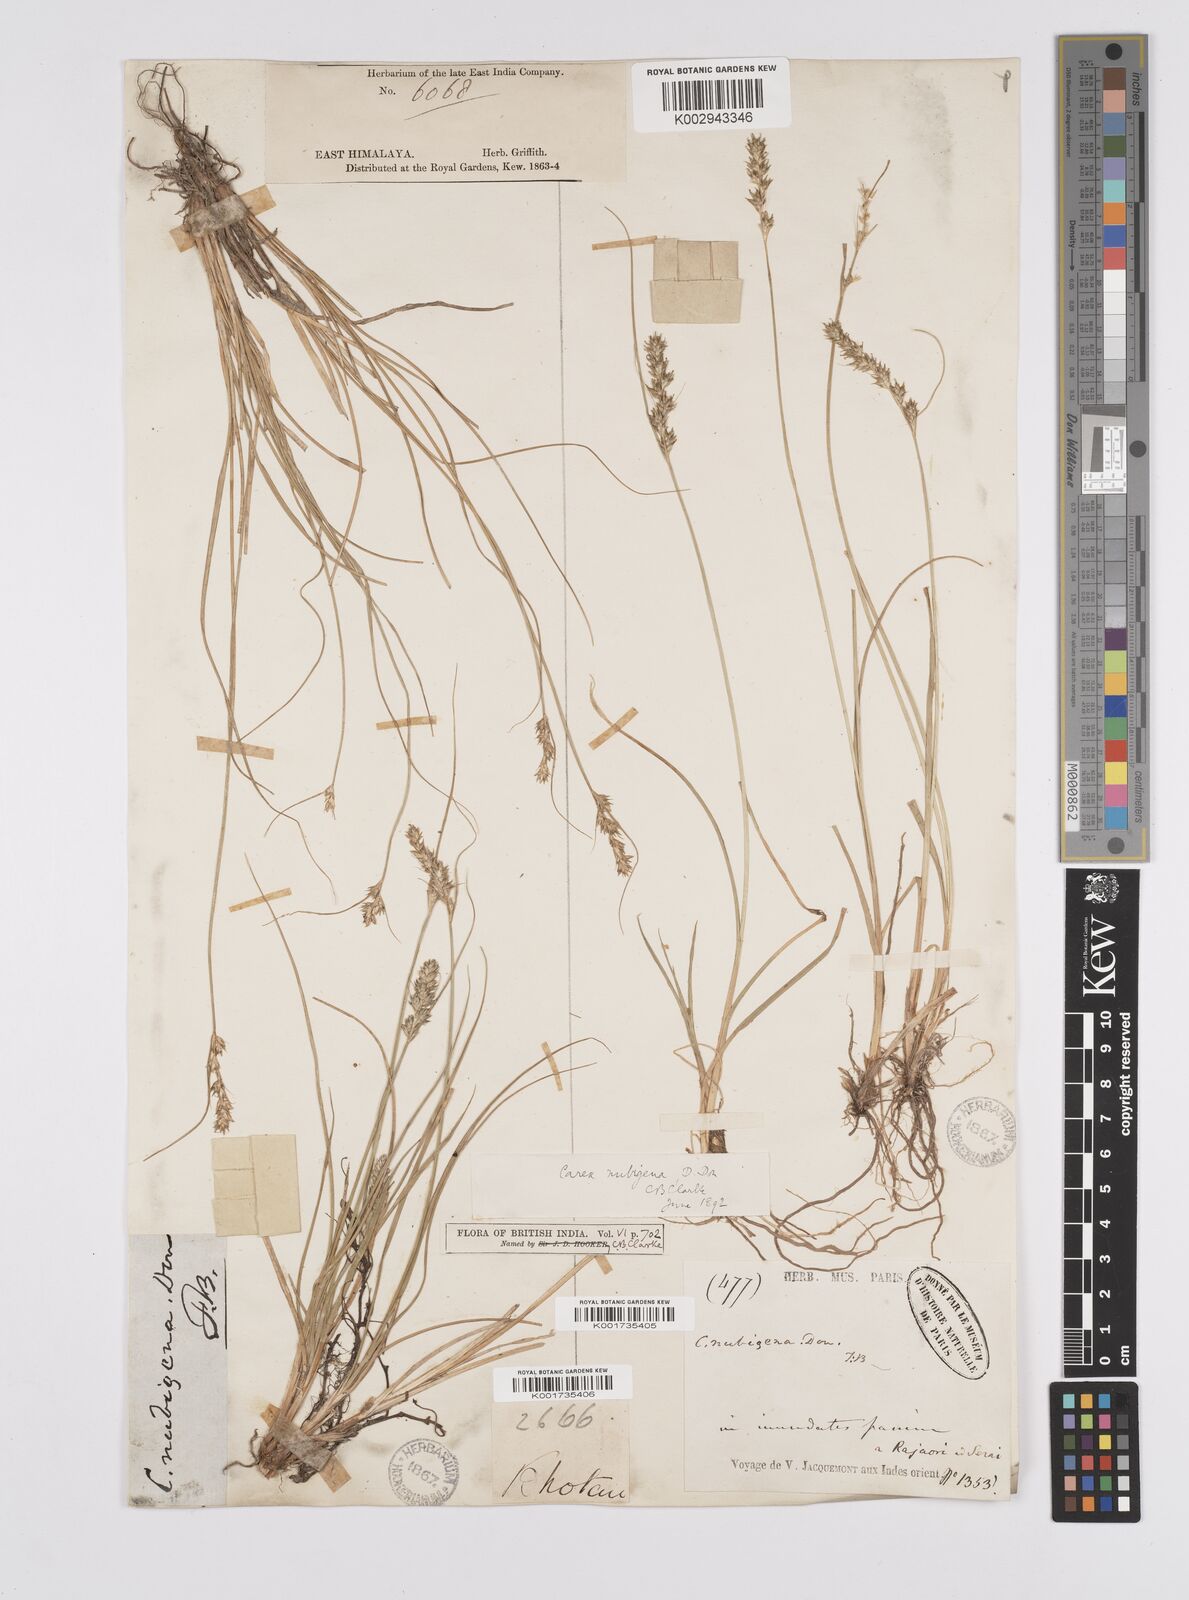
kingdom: Plantae
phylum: Tracheophyta
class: Liliopsida
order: Poales
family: Cyperaceae
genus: Carex
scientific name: Carex nubigena
